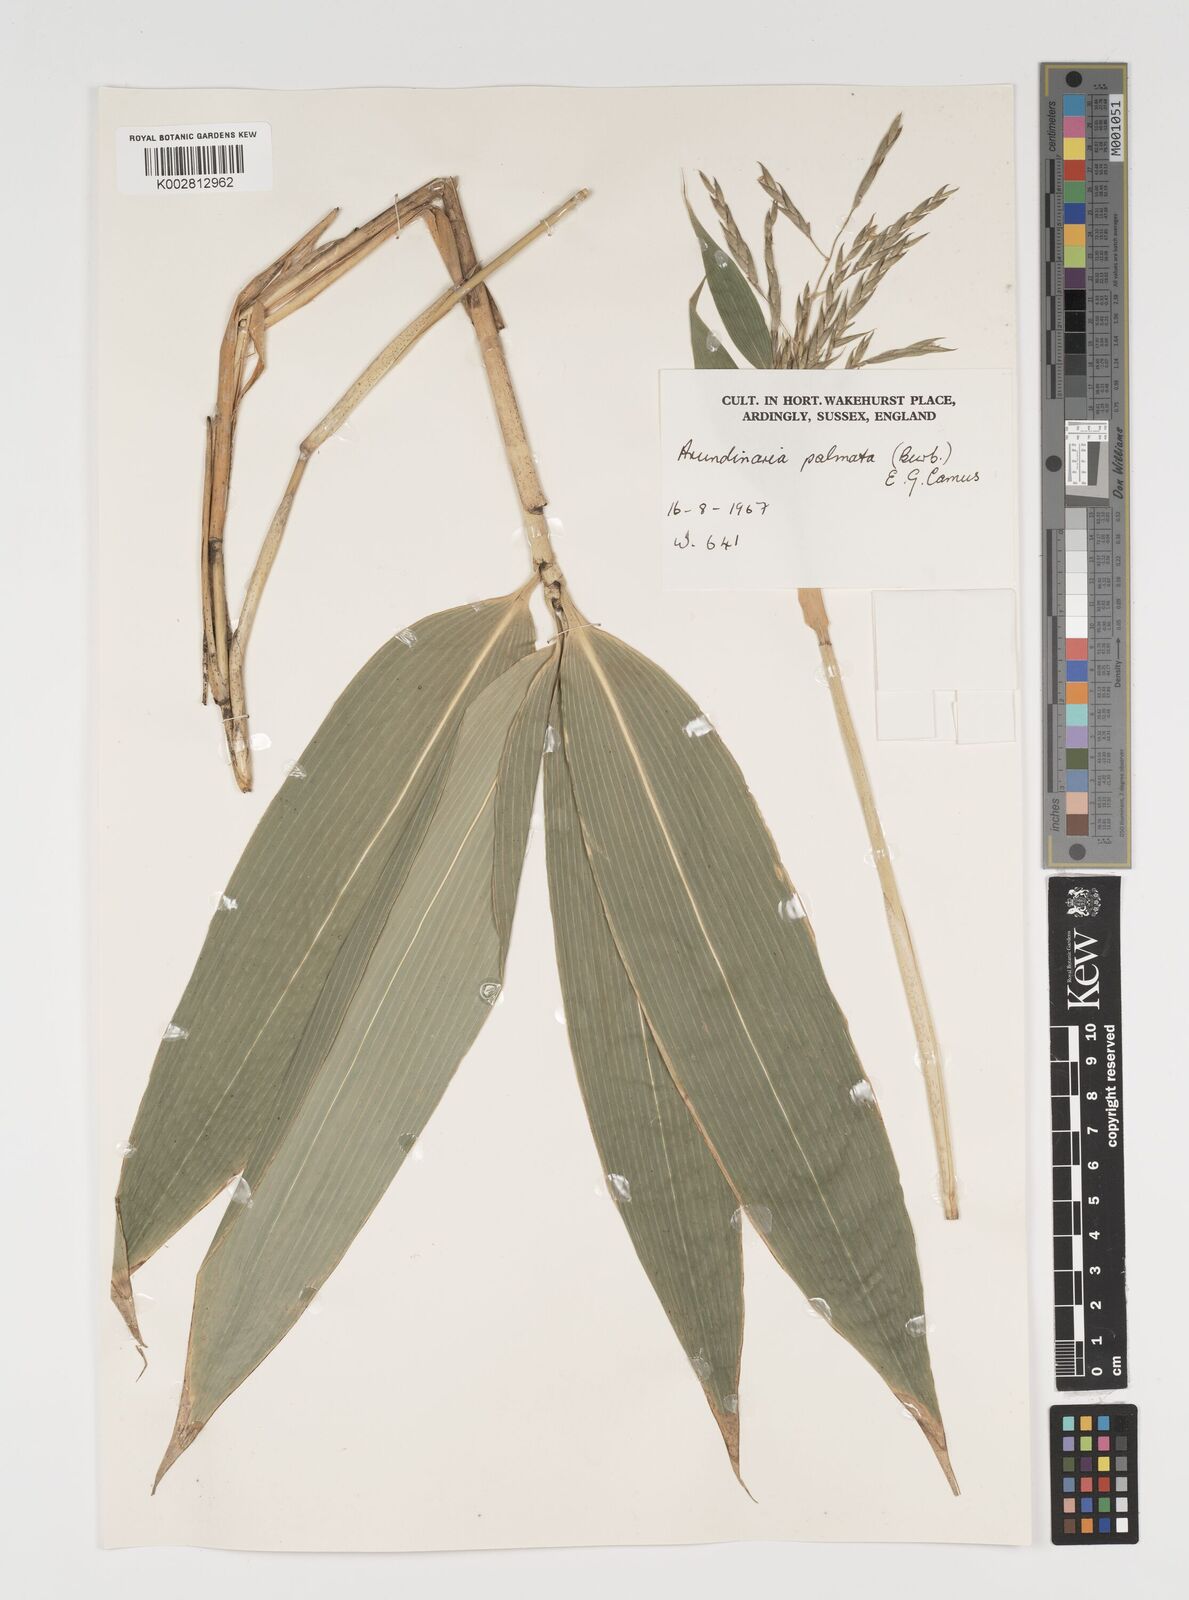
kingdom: Plantae
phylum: Tracheophyta
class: Liliopsida
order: Poales
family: Poaceae
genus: Sasa
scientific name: Sasa palmata
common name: Broad-leaved bamboo
